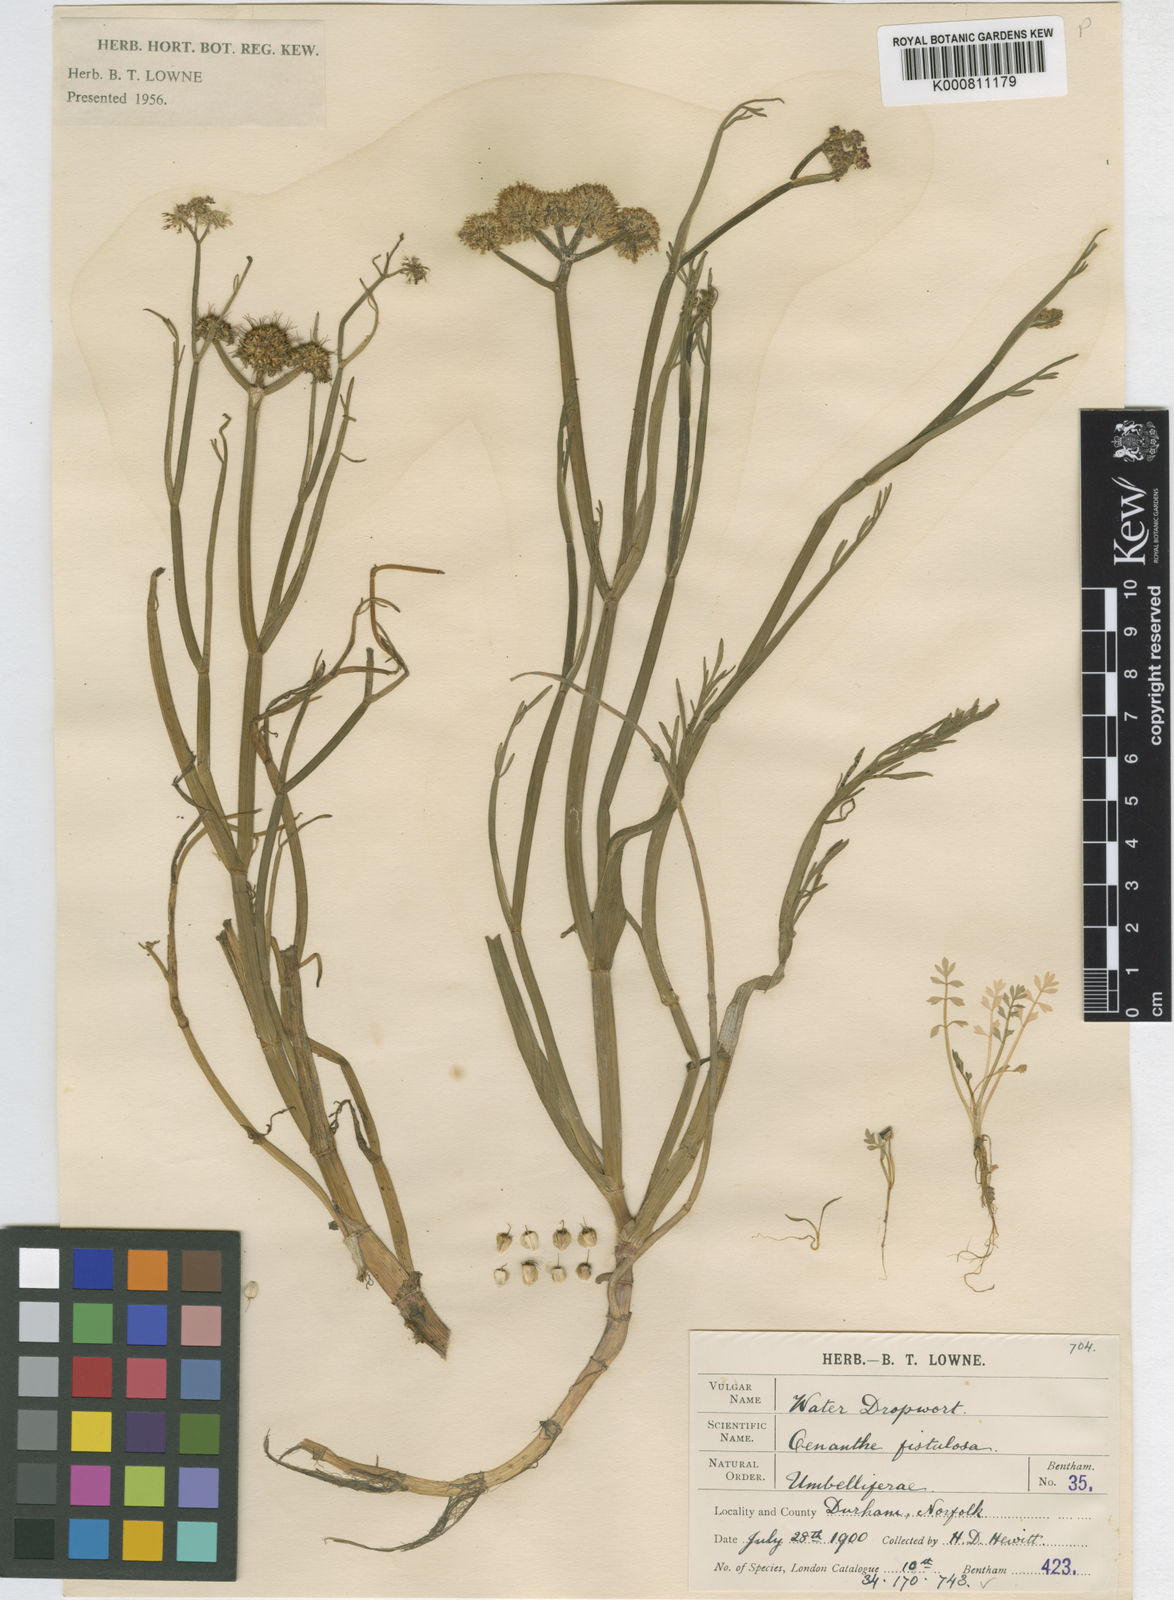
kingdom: Plantae
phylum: Tracheophyta
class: Magnoliopsida
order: Apiales
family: Apiaceae
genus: Oenanthe
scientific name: Oenanthe fistulosa
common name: Tubular water-dropwort
